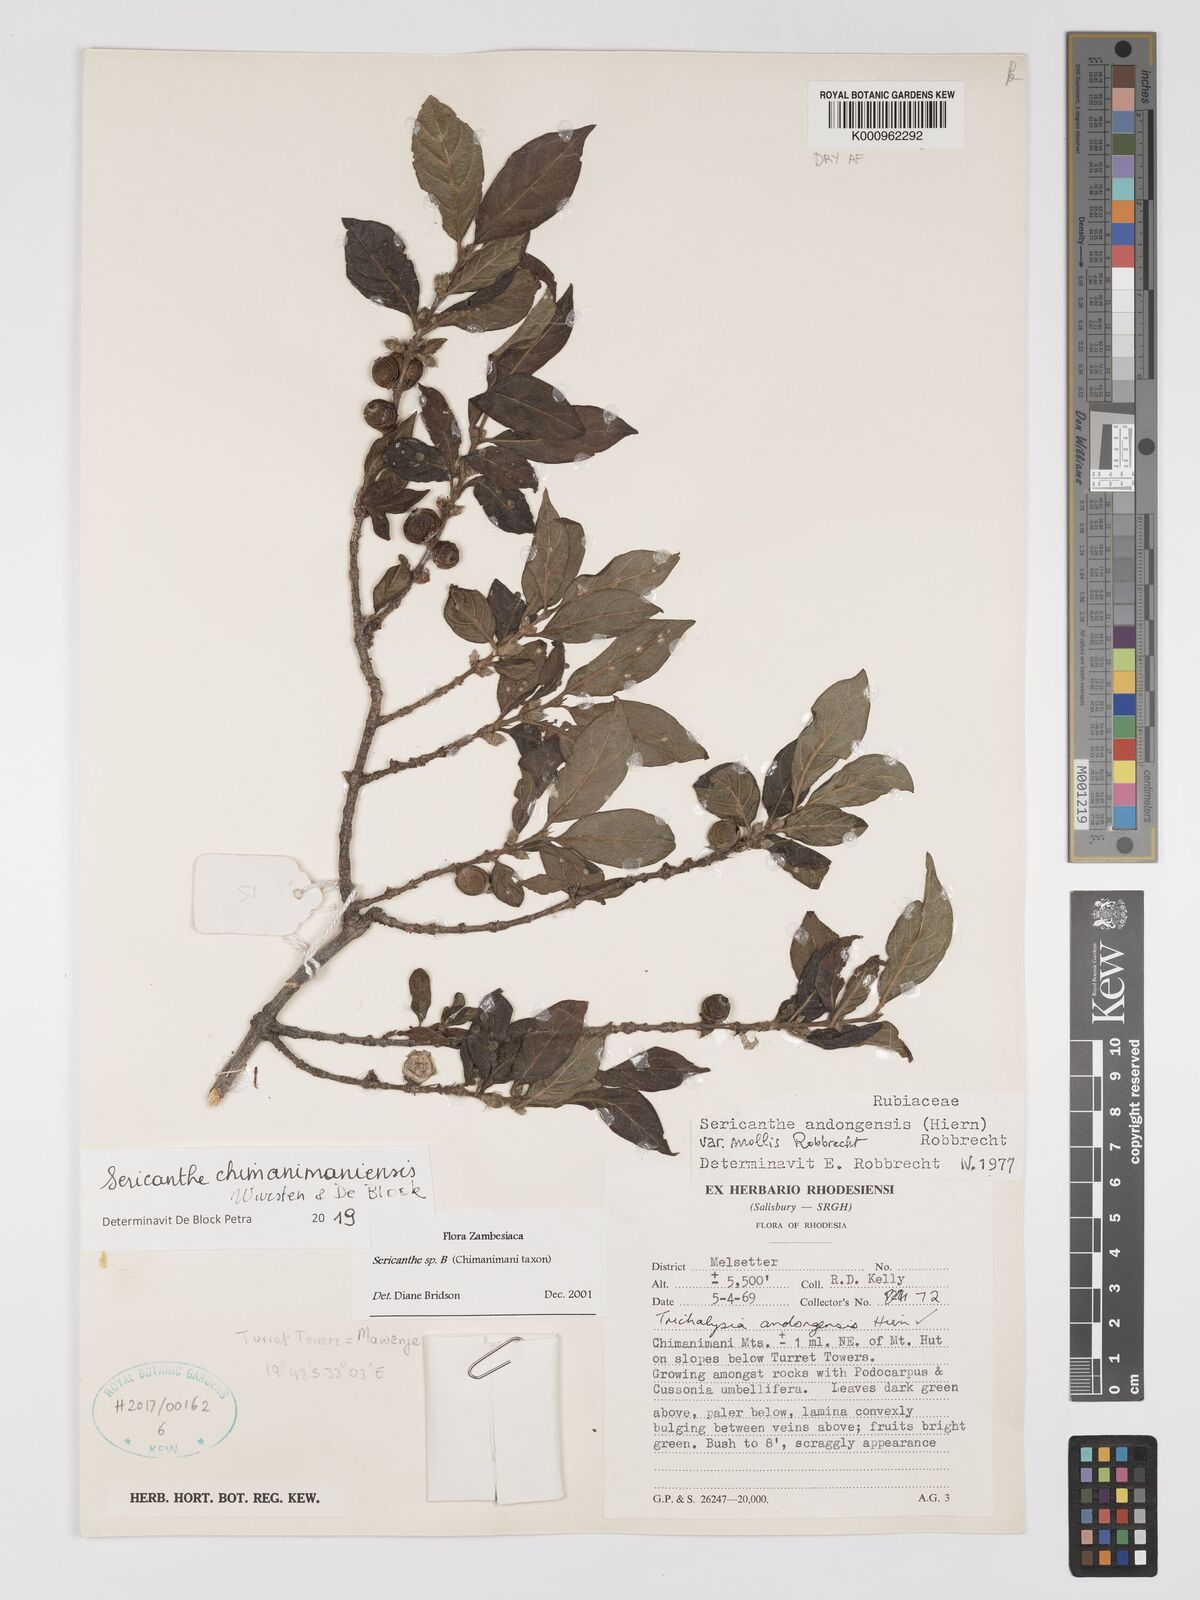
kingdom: Plantae
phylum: Tracheophyta
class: Magnoliopsida
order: Gentianales
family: Rubiaceae
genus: Sericanthe
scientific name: Sericanthe
